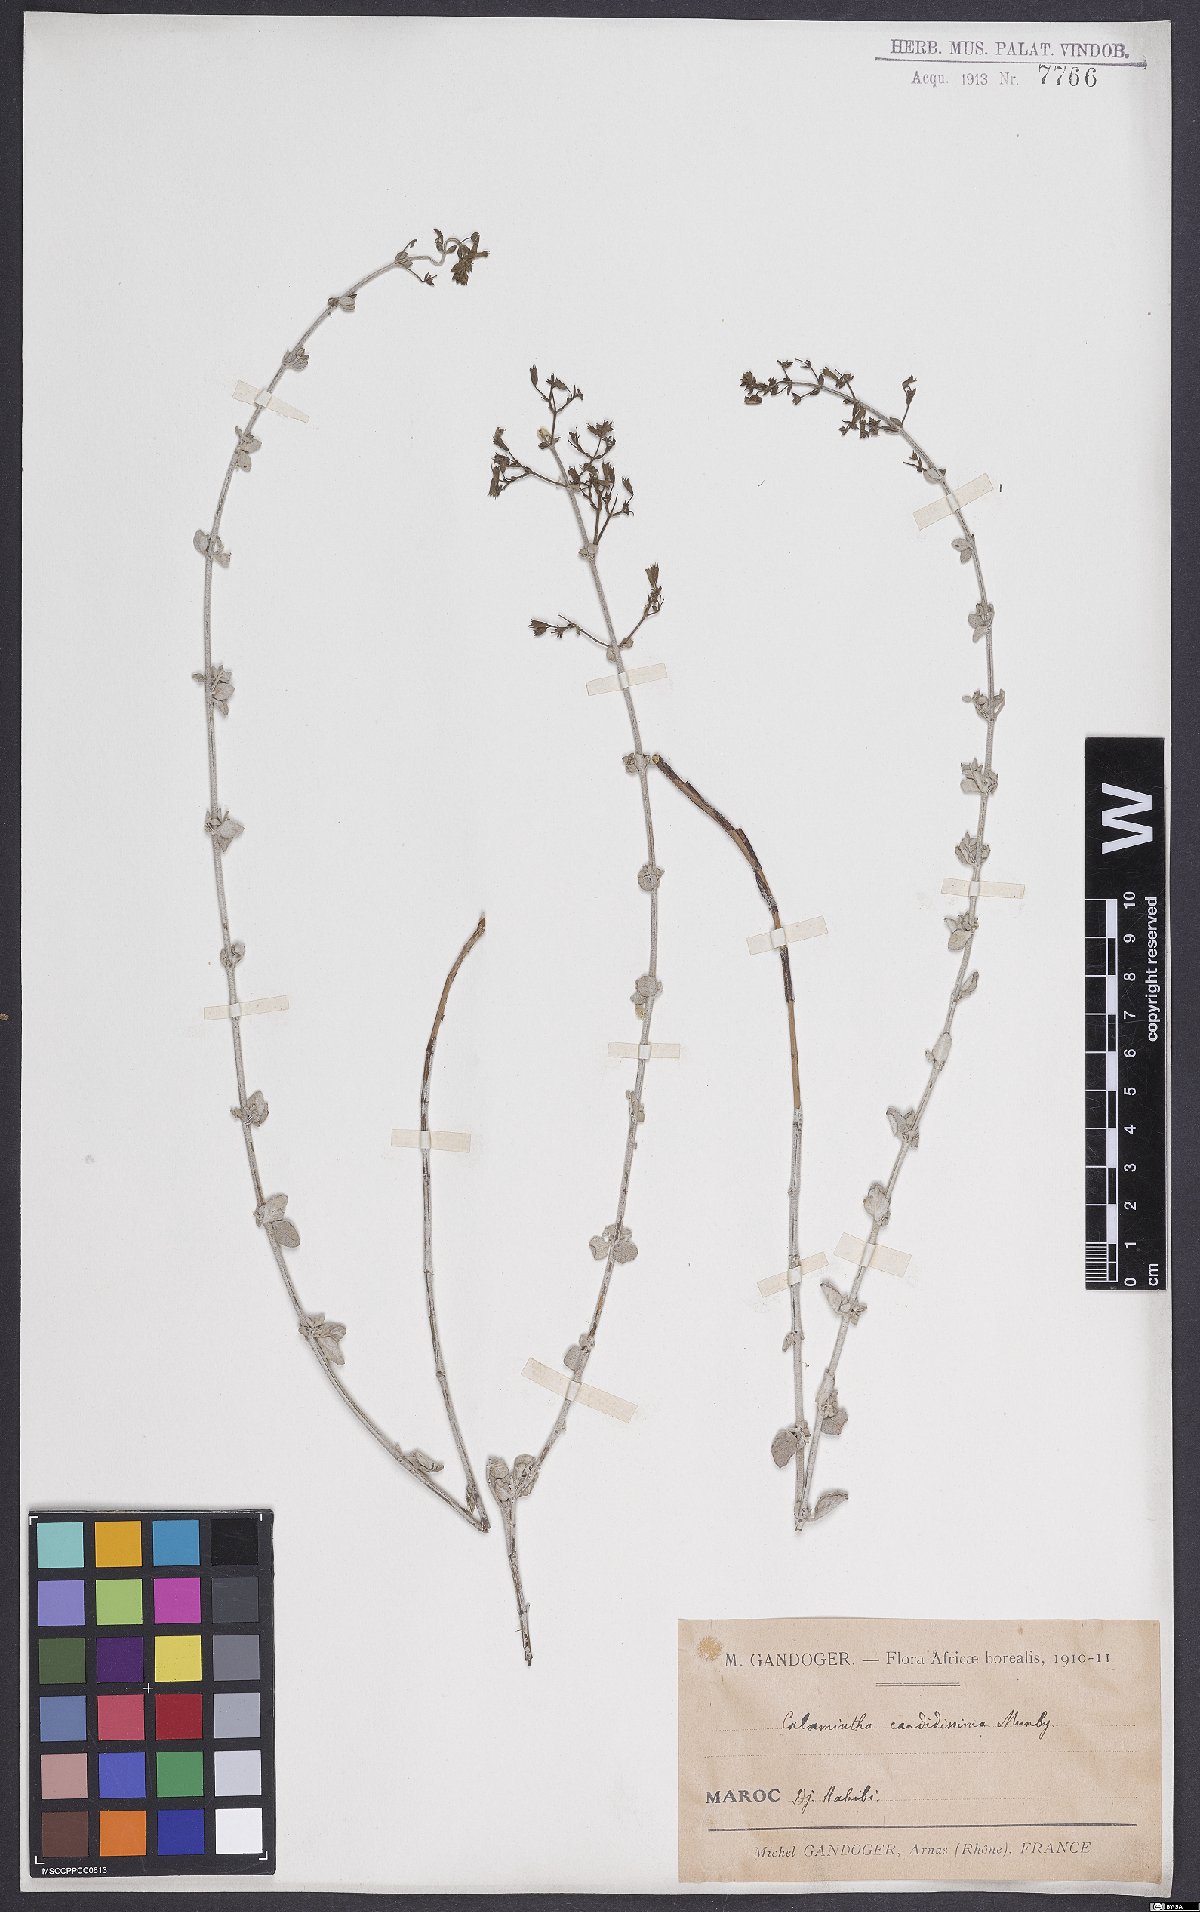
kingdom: Plantae
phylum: Tracheophyta
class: Magnoliopsida
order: Lamiales
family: Lamiaceae
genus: Calamintha
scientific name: Calamintha
